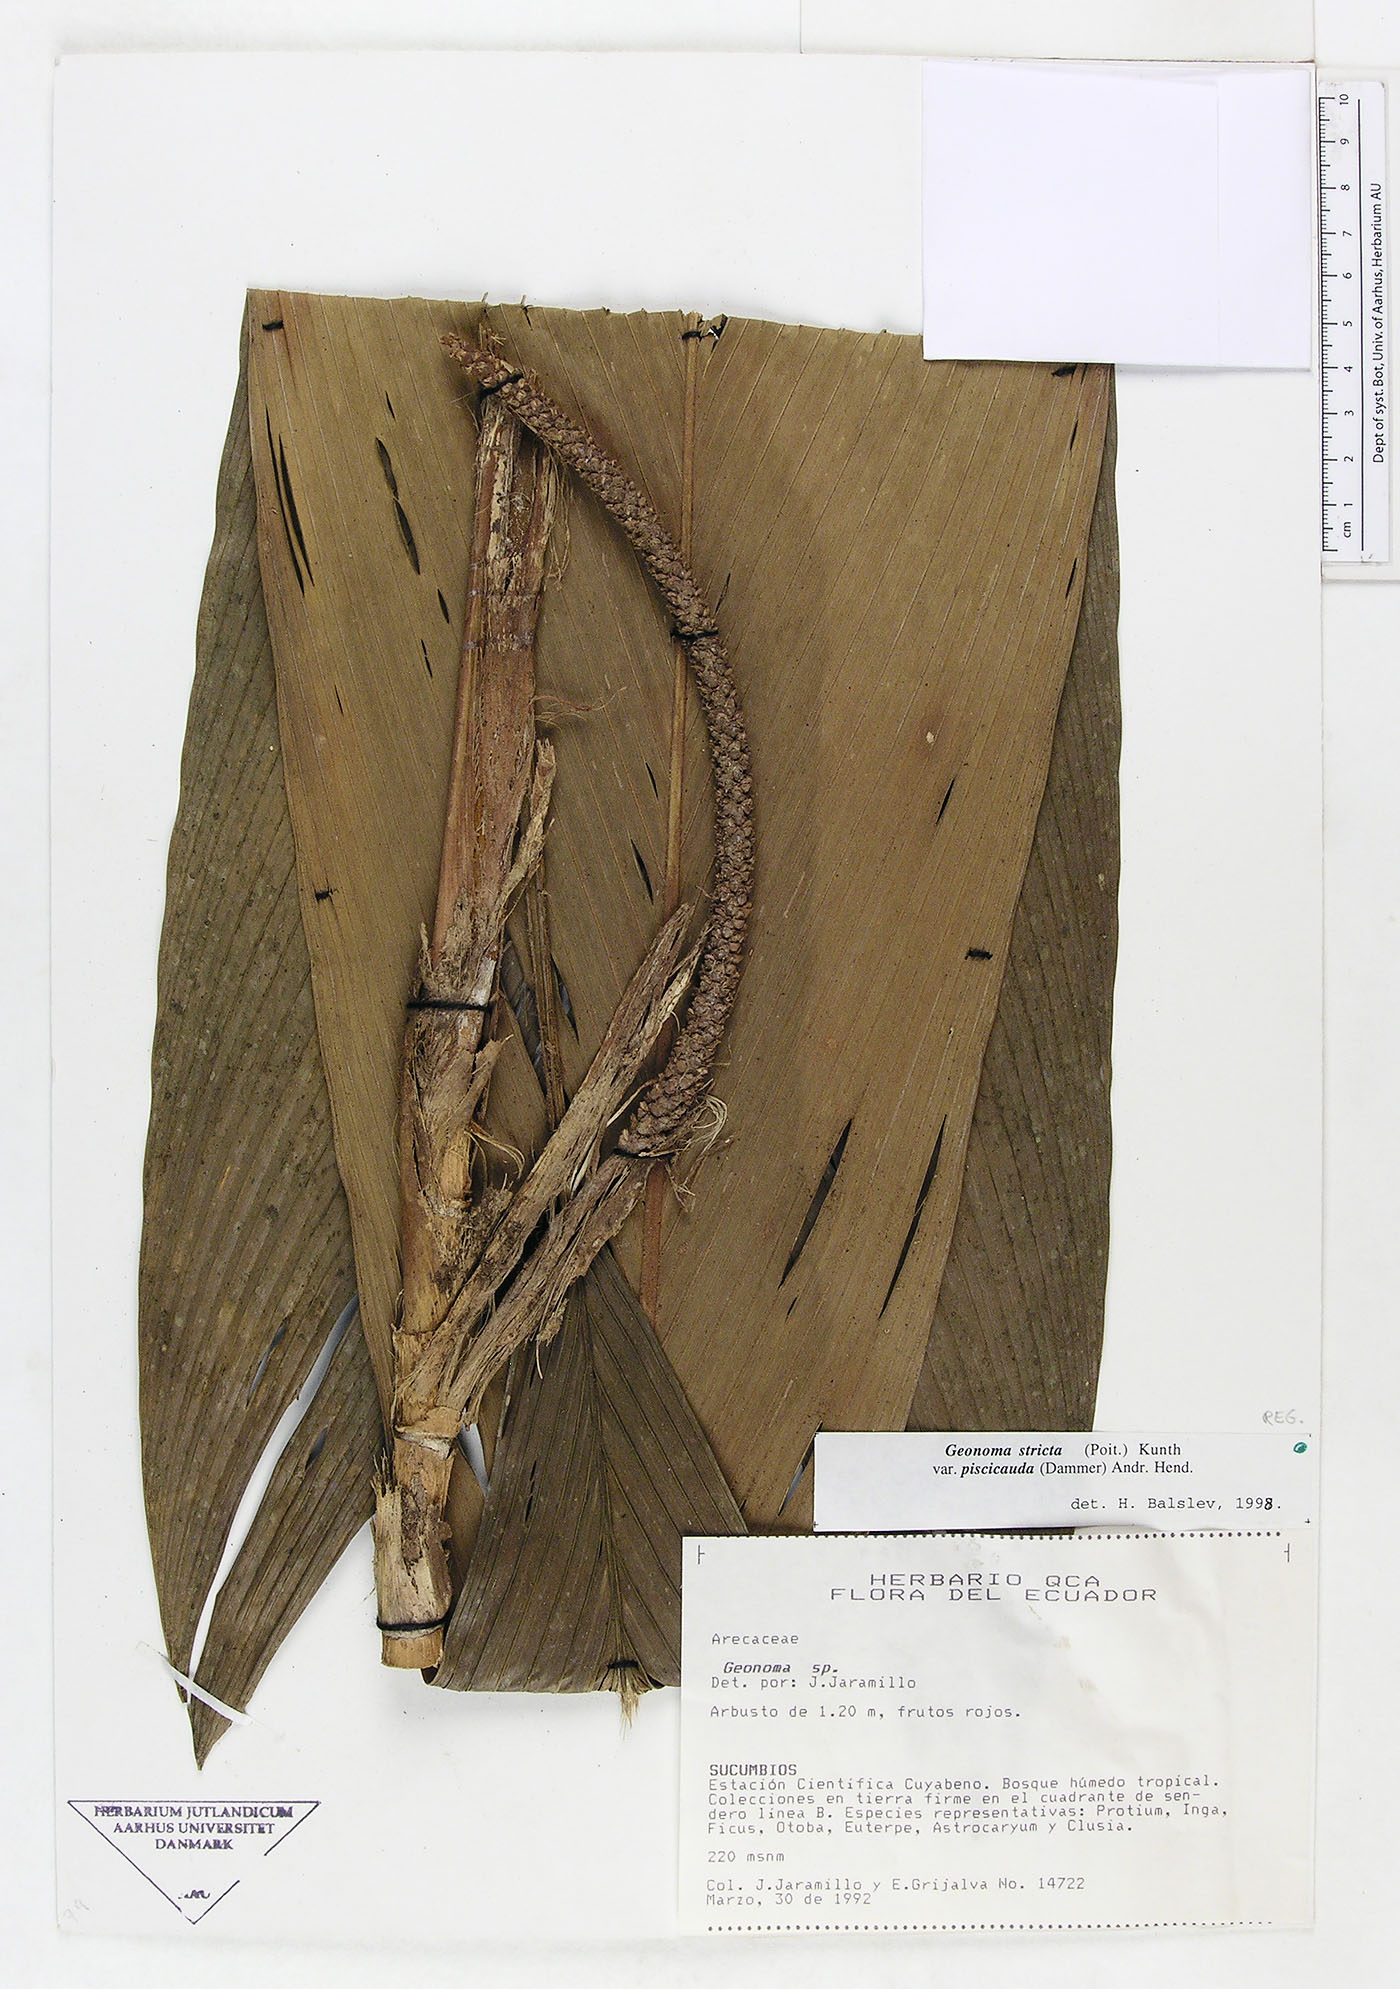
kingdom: Plantae
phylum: Tracheophyta
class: Liliopsida
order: Arecales
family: Arecaceae
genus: Geonoma
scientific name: Geonoma stricta
